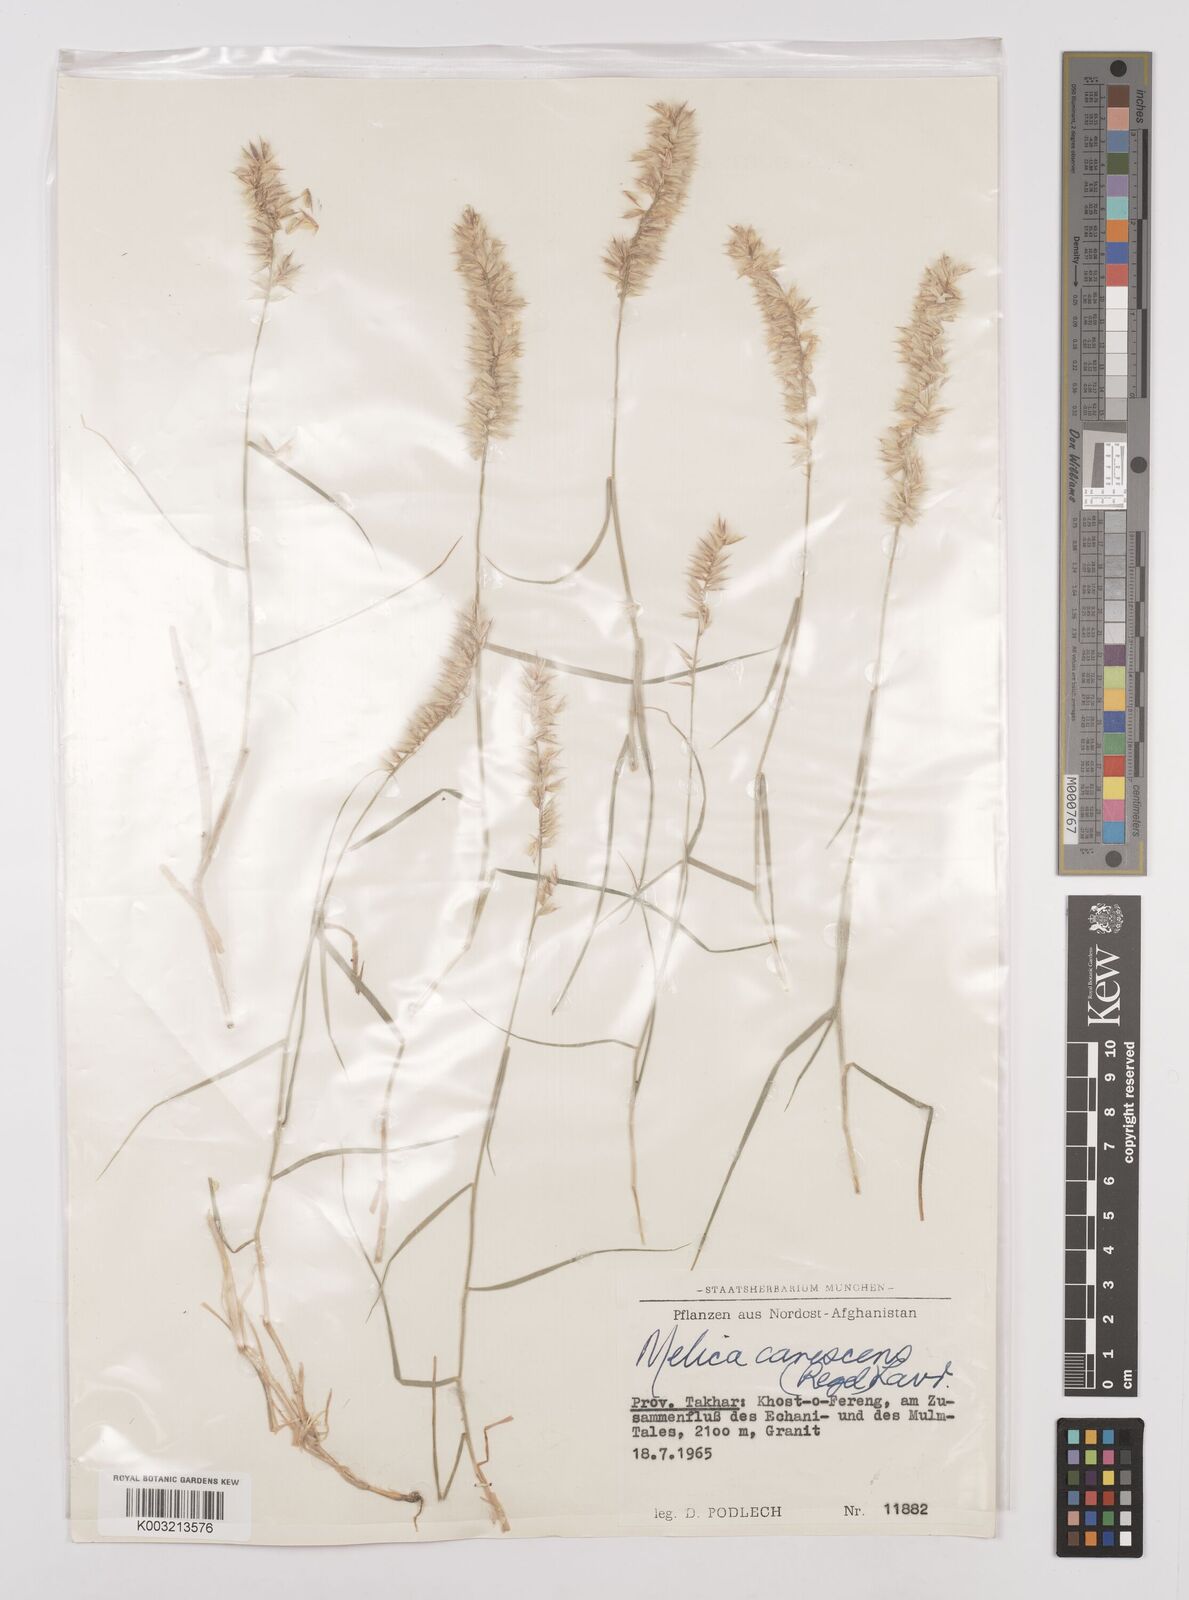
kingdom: Plantae
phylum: Tracheophyta
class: Liliopsida
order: Poales
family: Poaceae
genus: Melica
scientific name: Melica persica
